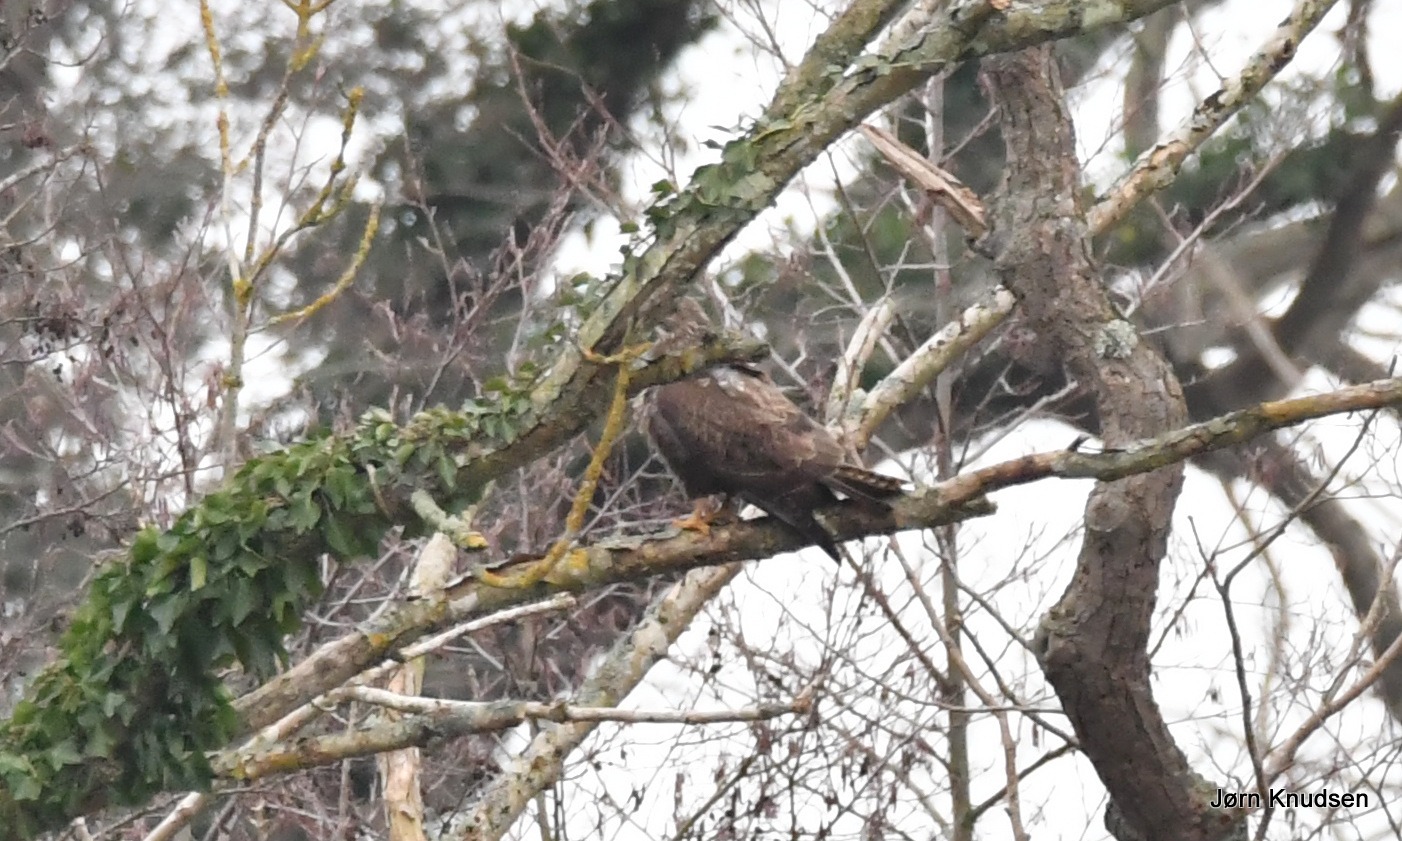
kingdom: Animalia
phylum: Chordata
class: Aves
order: Accipitriformes
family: Accipitridae
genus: Buteo
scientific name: Buteo buteo
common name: Musvåge
